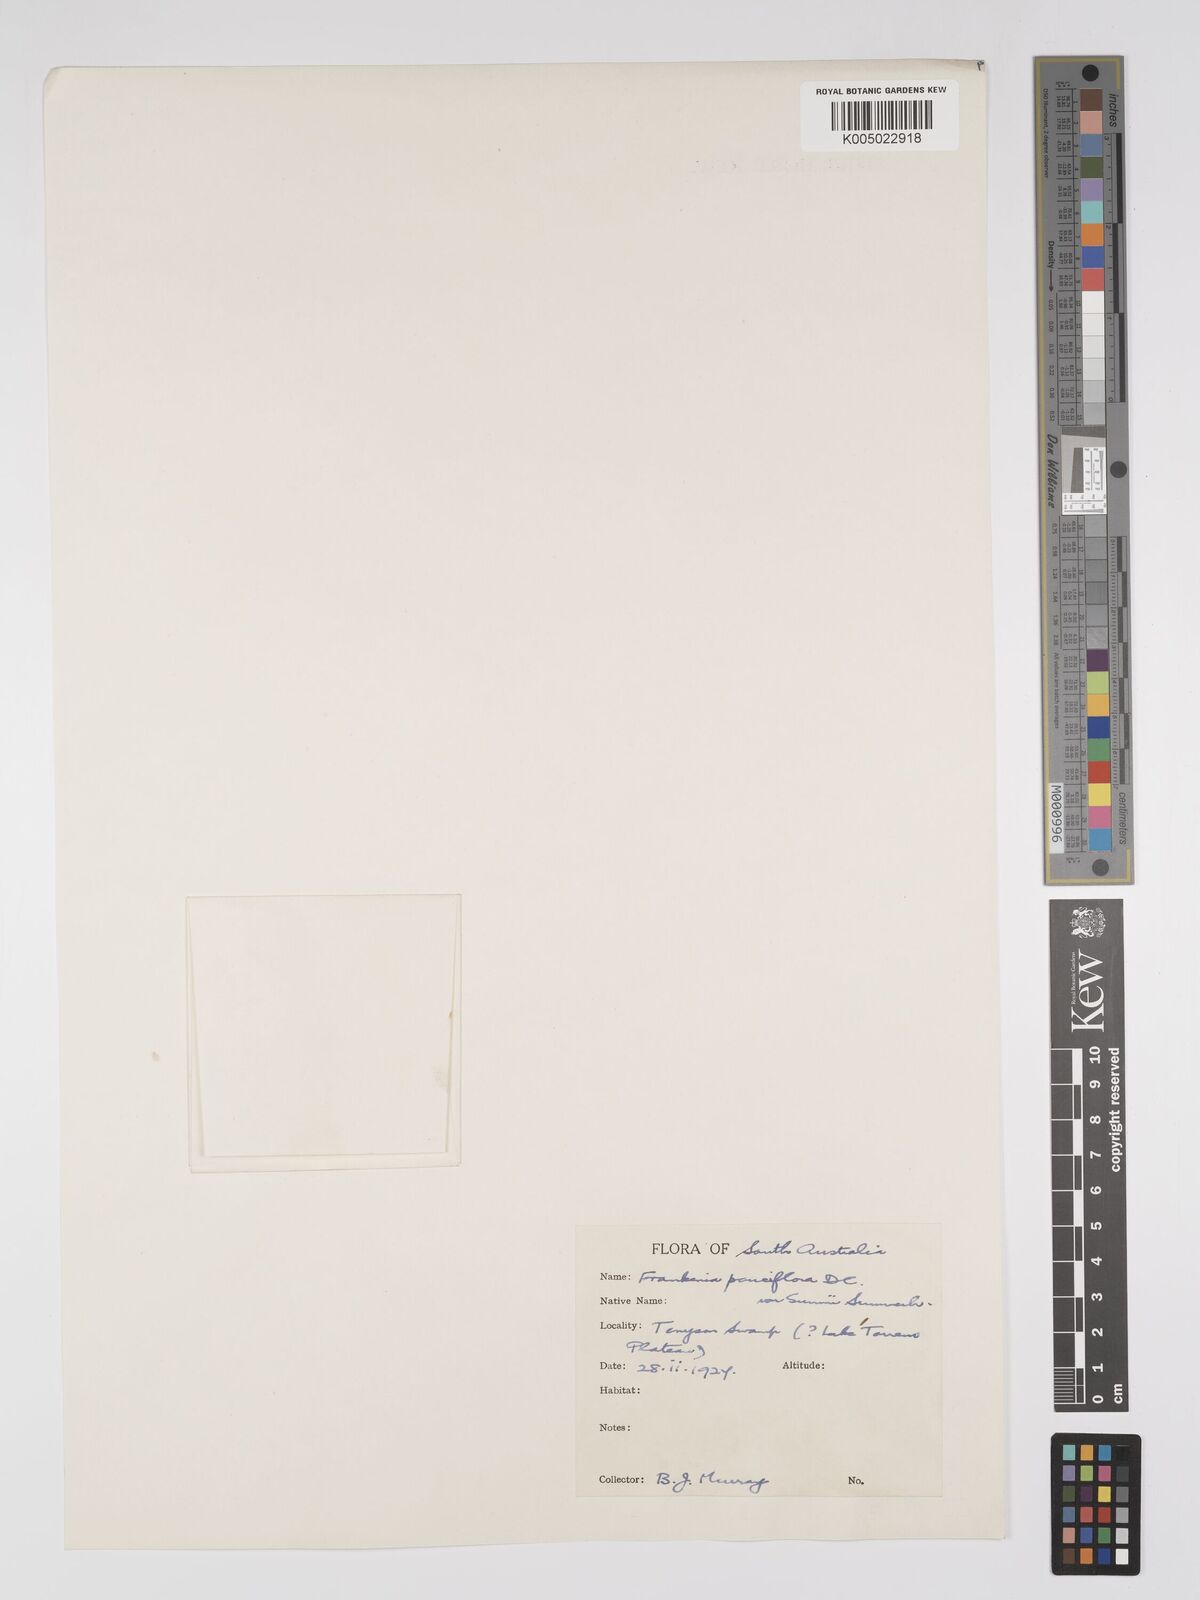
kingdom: Plantae
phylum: Tracheophyta
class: Magnoliopsida
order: Caryophyllales
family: Frankeniaceae
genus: Frankenia
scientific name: Frankenia pauciflora
